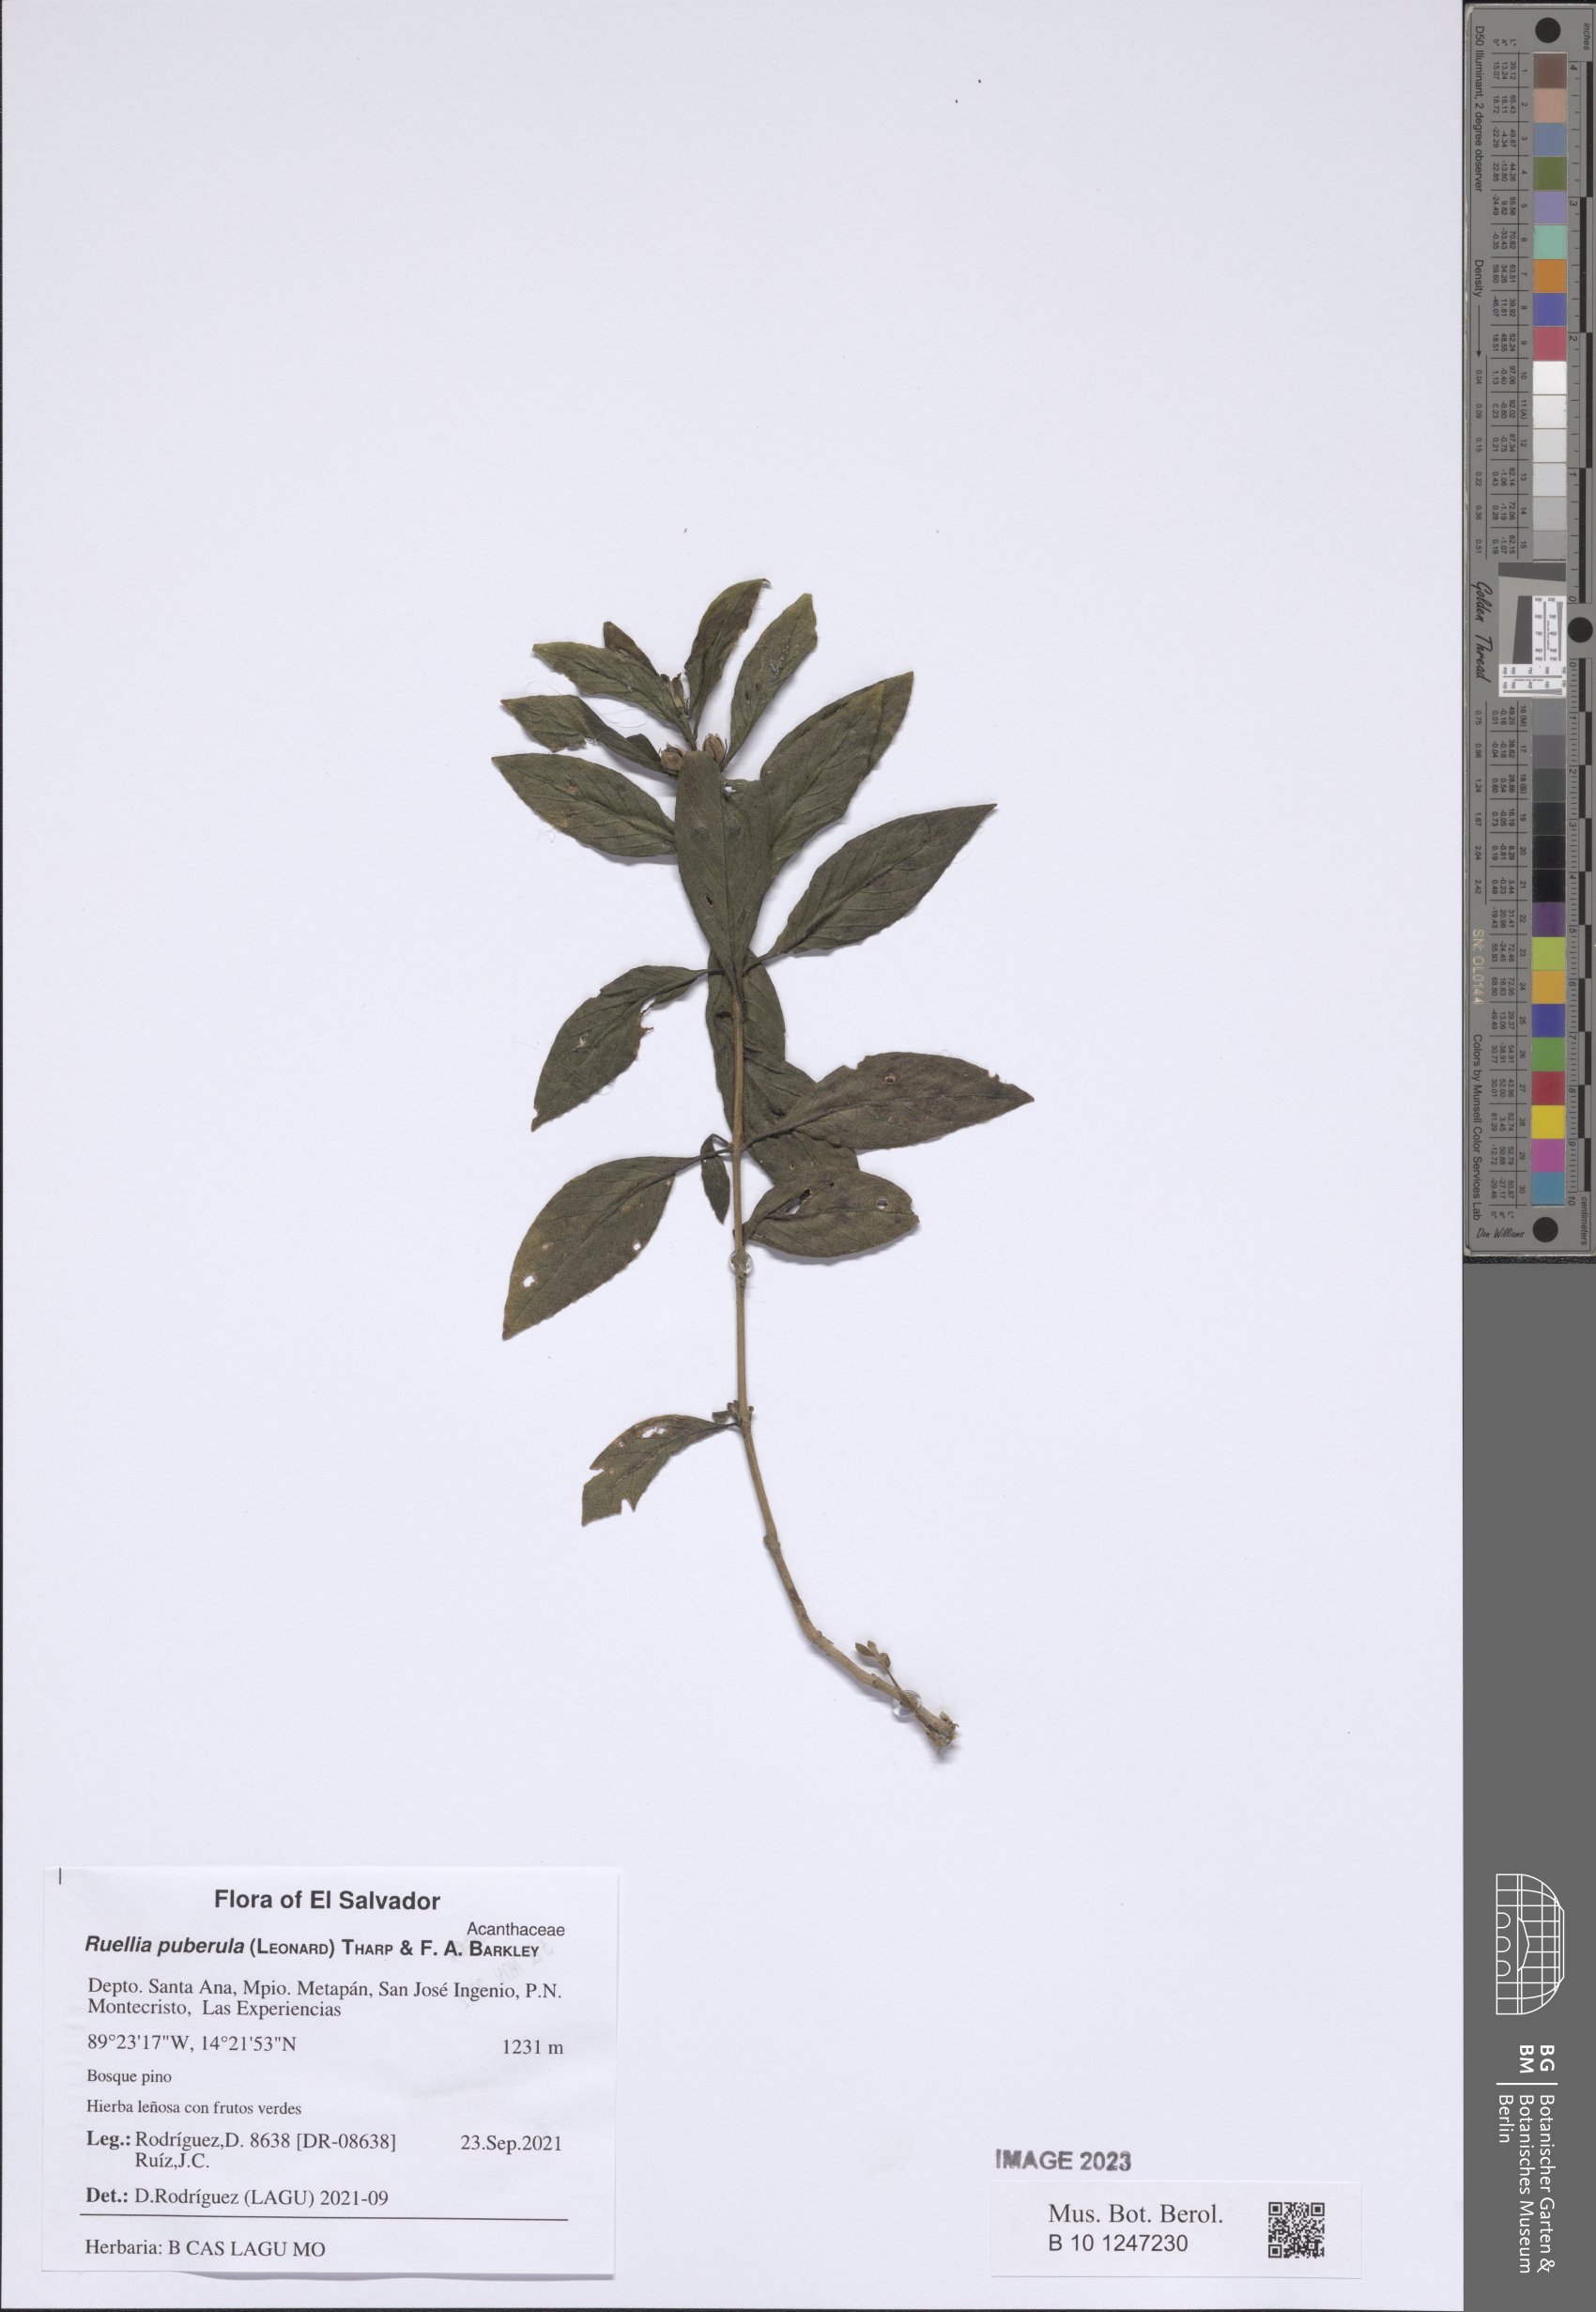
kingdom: Plantae
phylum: Tracheophyta
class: Magnoliopsida
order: Lamiales
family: Acanthaceae
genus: Ruellia
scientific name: Ruellia puberula
